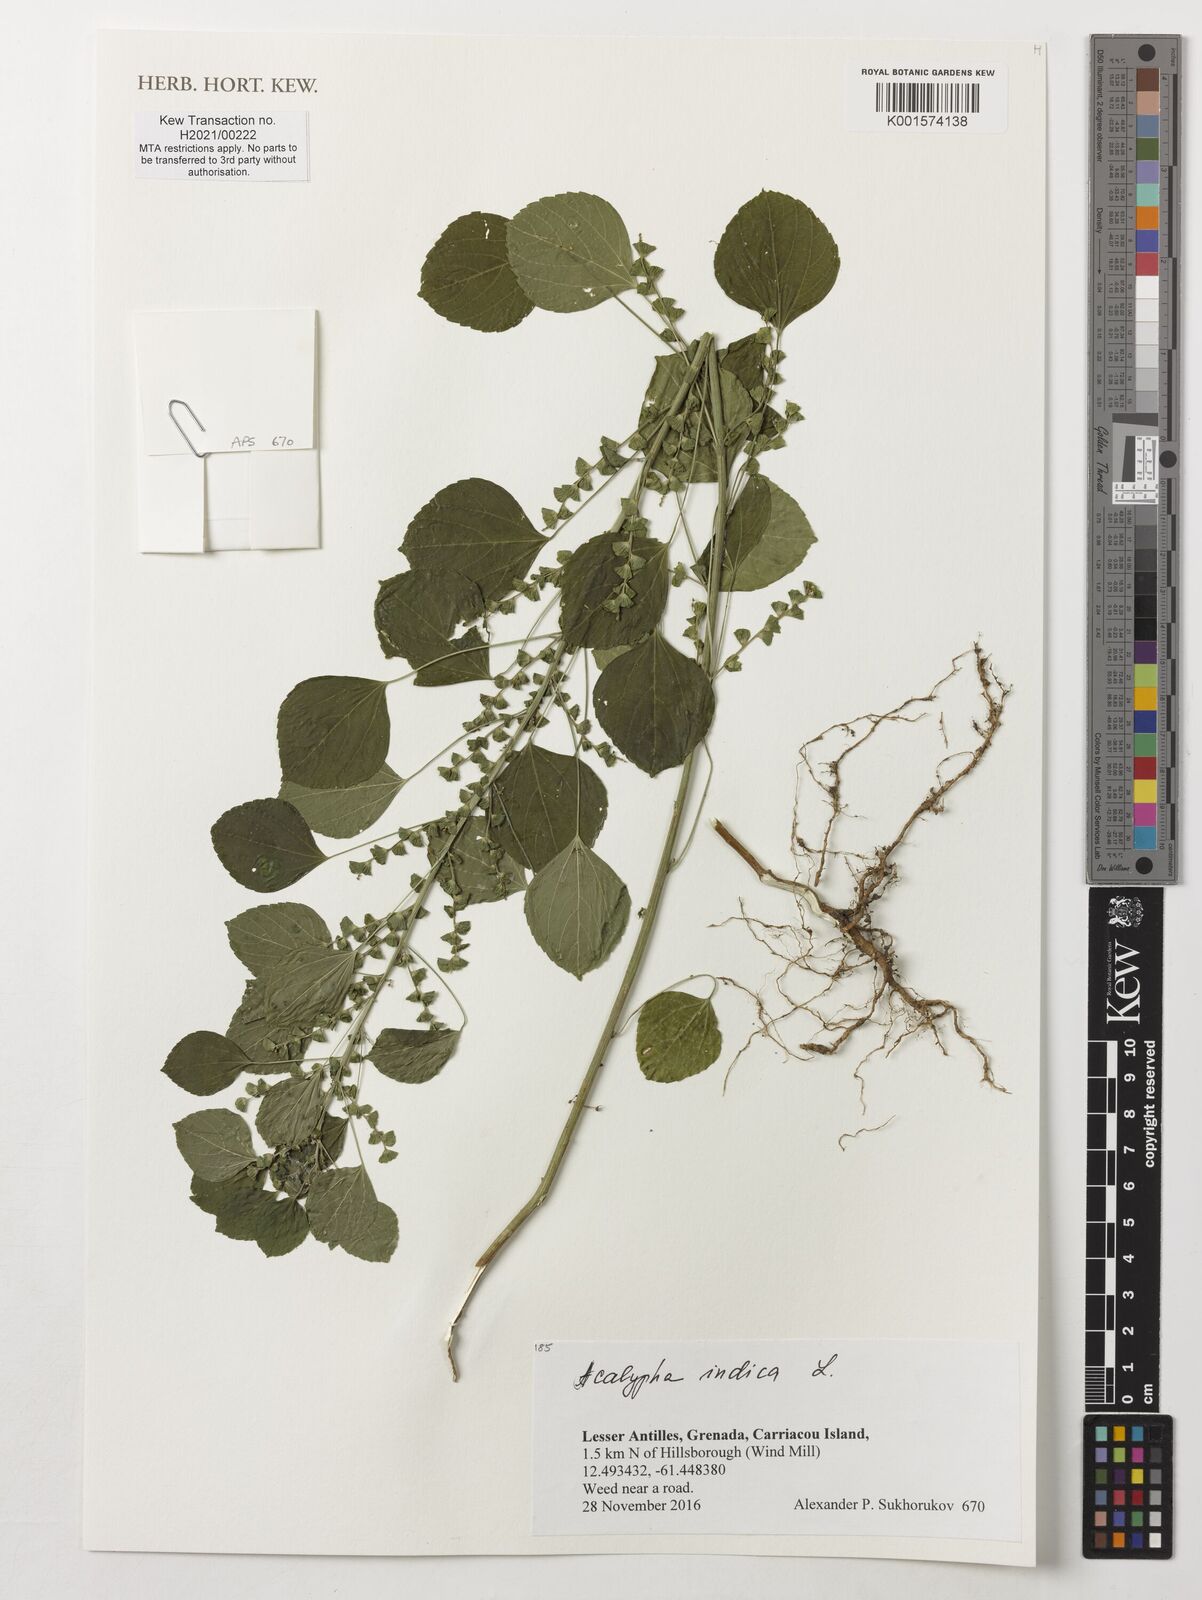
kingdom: Plantae
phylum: Tracheophyta
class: Magnoliopsida
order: Malpighiales
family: Euphorbiaceae
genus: Acalypha
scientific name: Acalypha indica
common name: Indian acalypha
